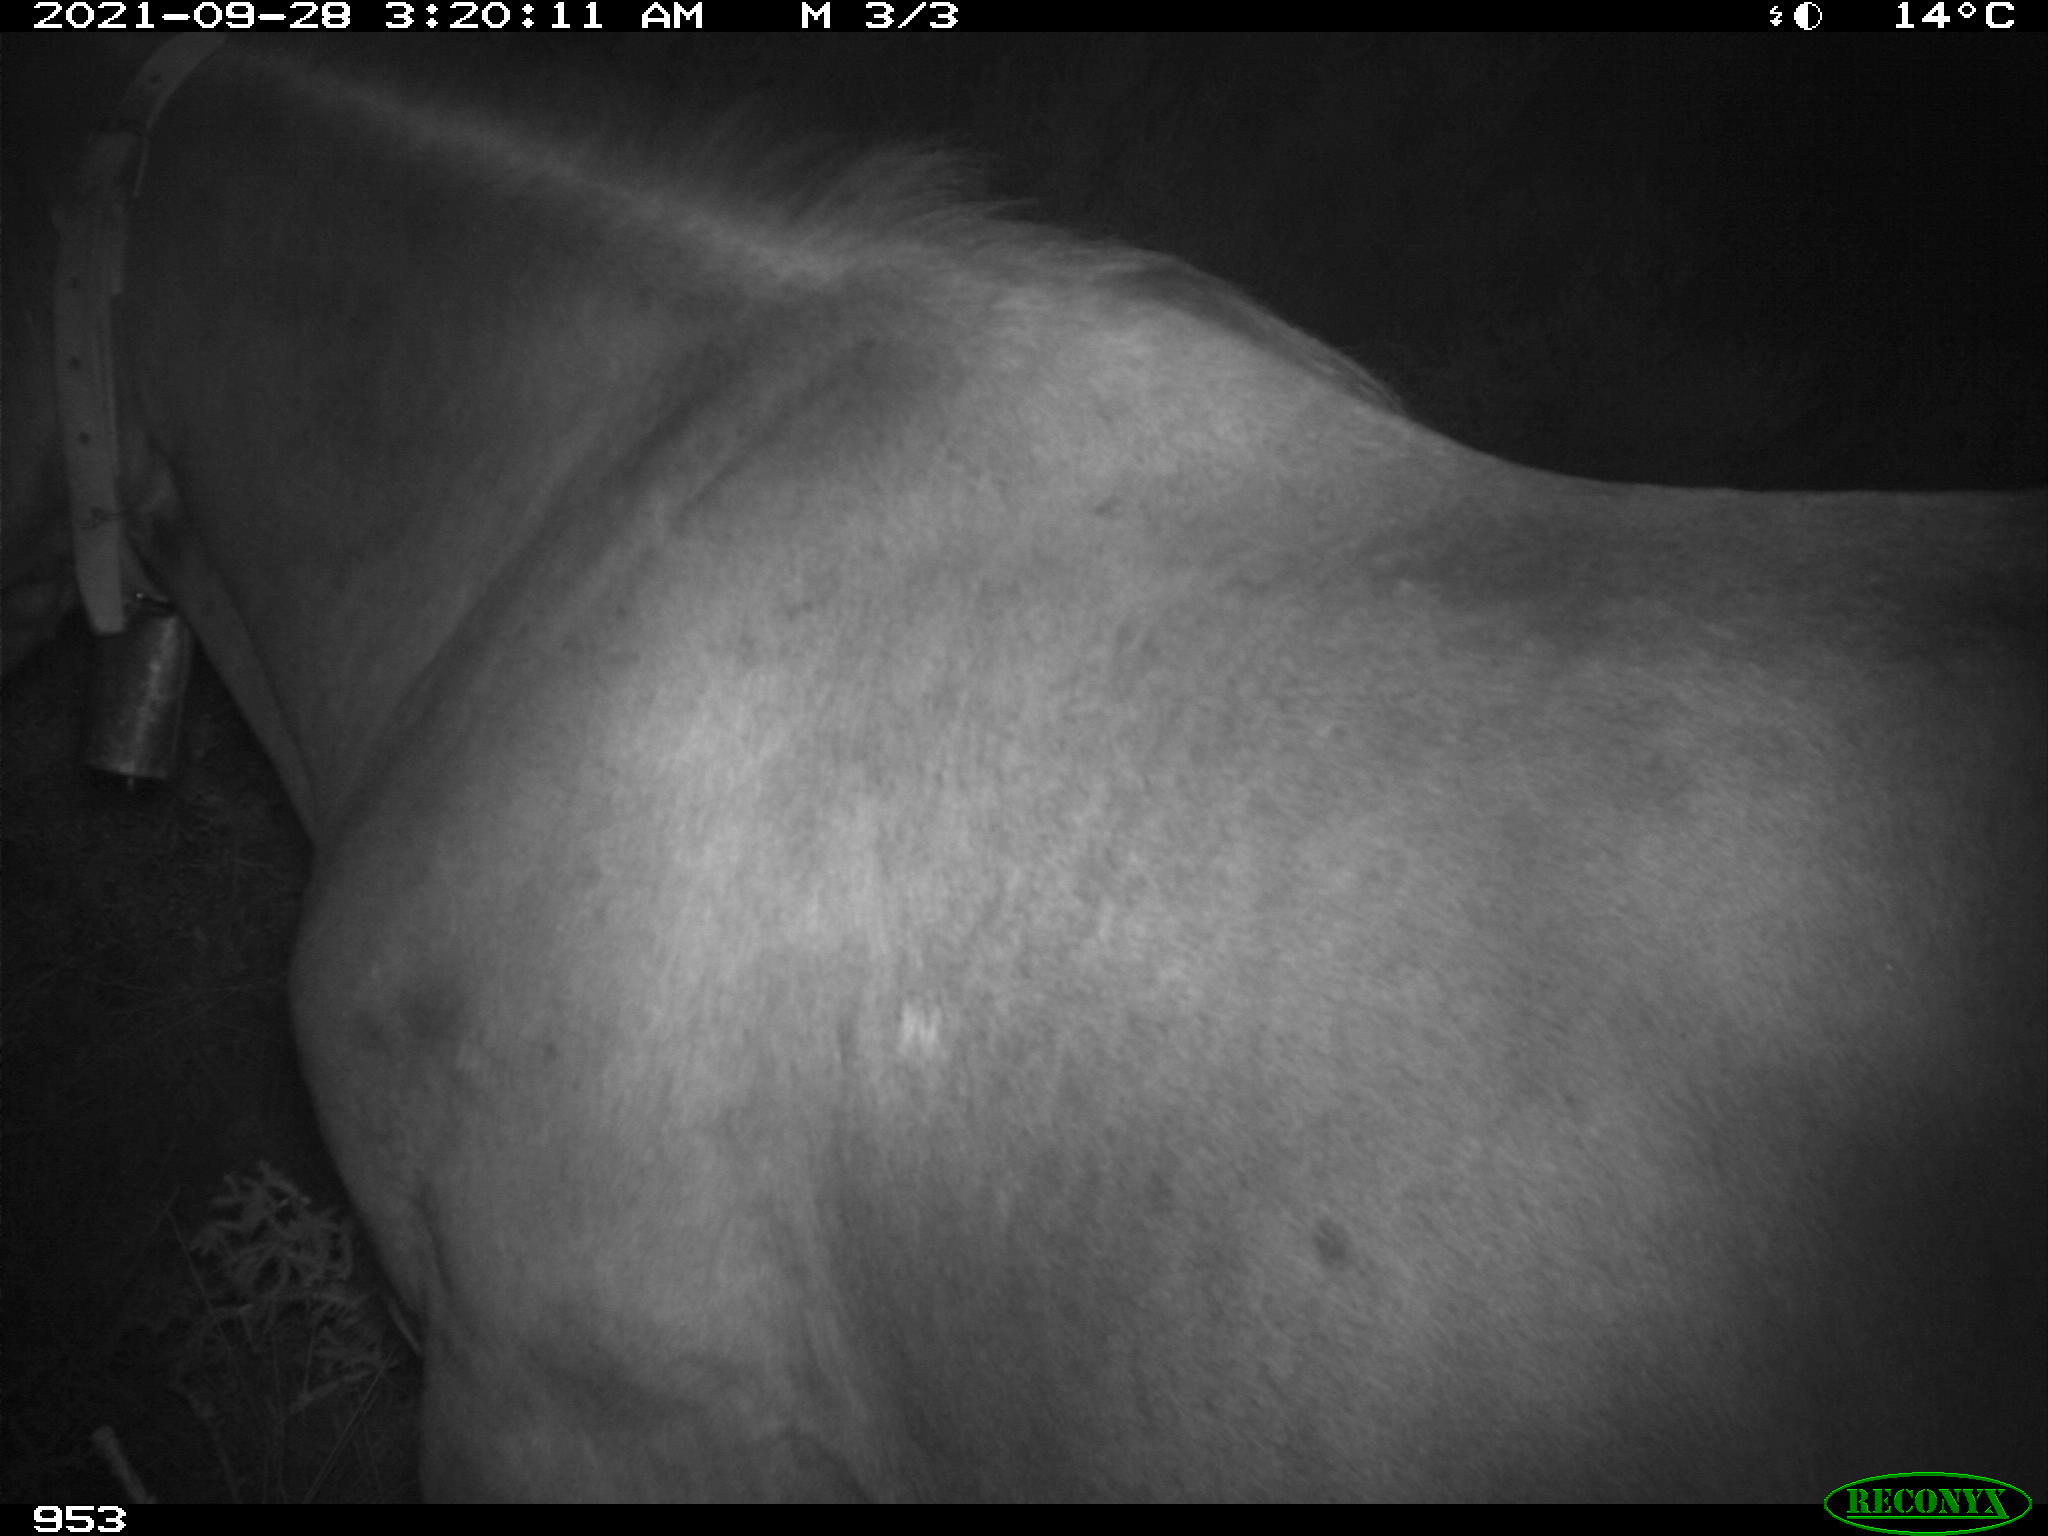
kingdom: Animalia
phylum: Chordata
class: Mammalia
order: Perissodactyla
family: Equidae
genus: Equus
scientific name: Equus caballus
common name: Horse
